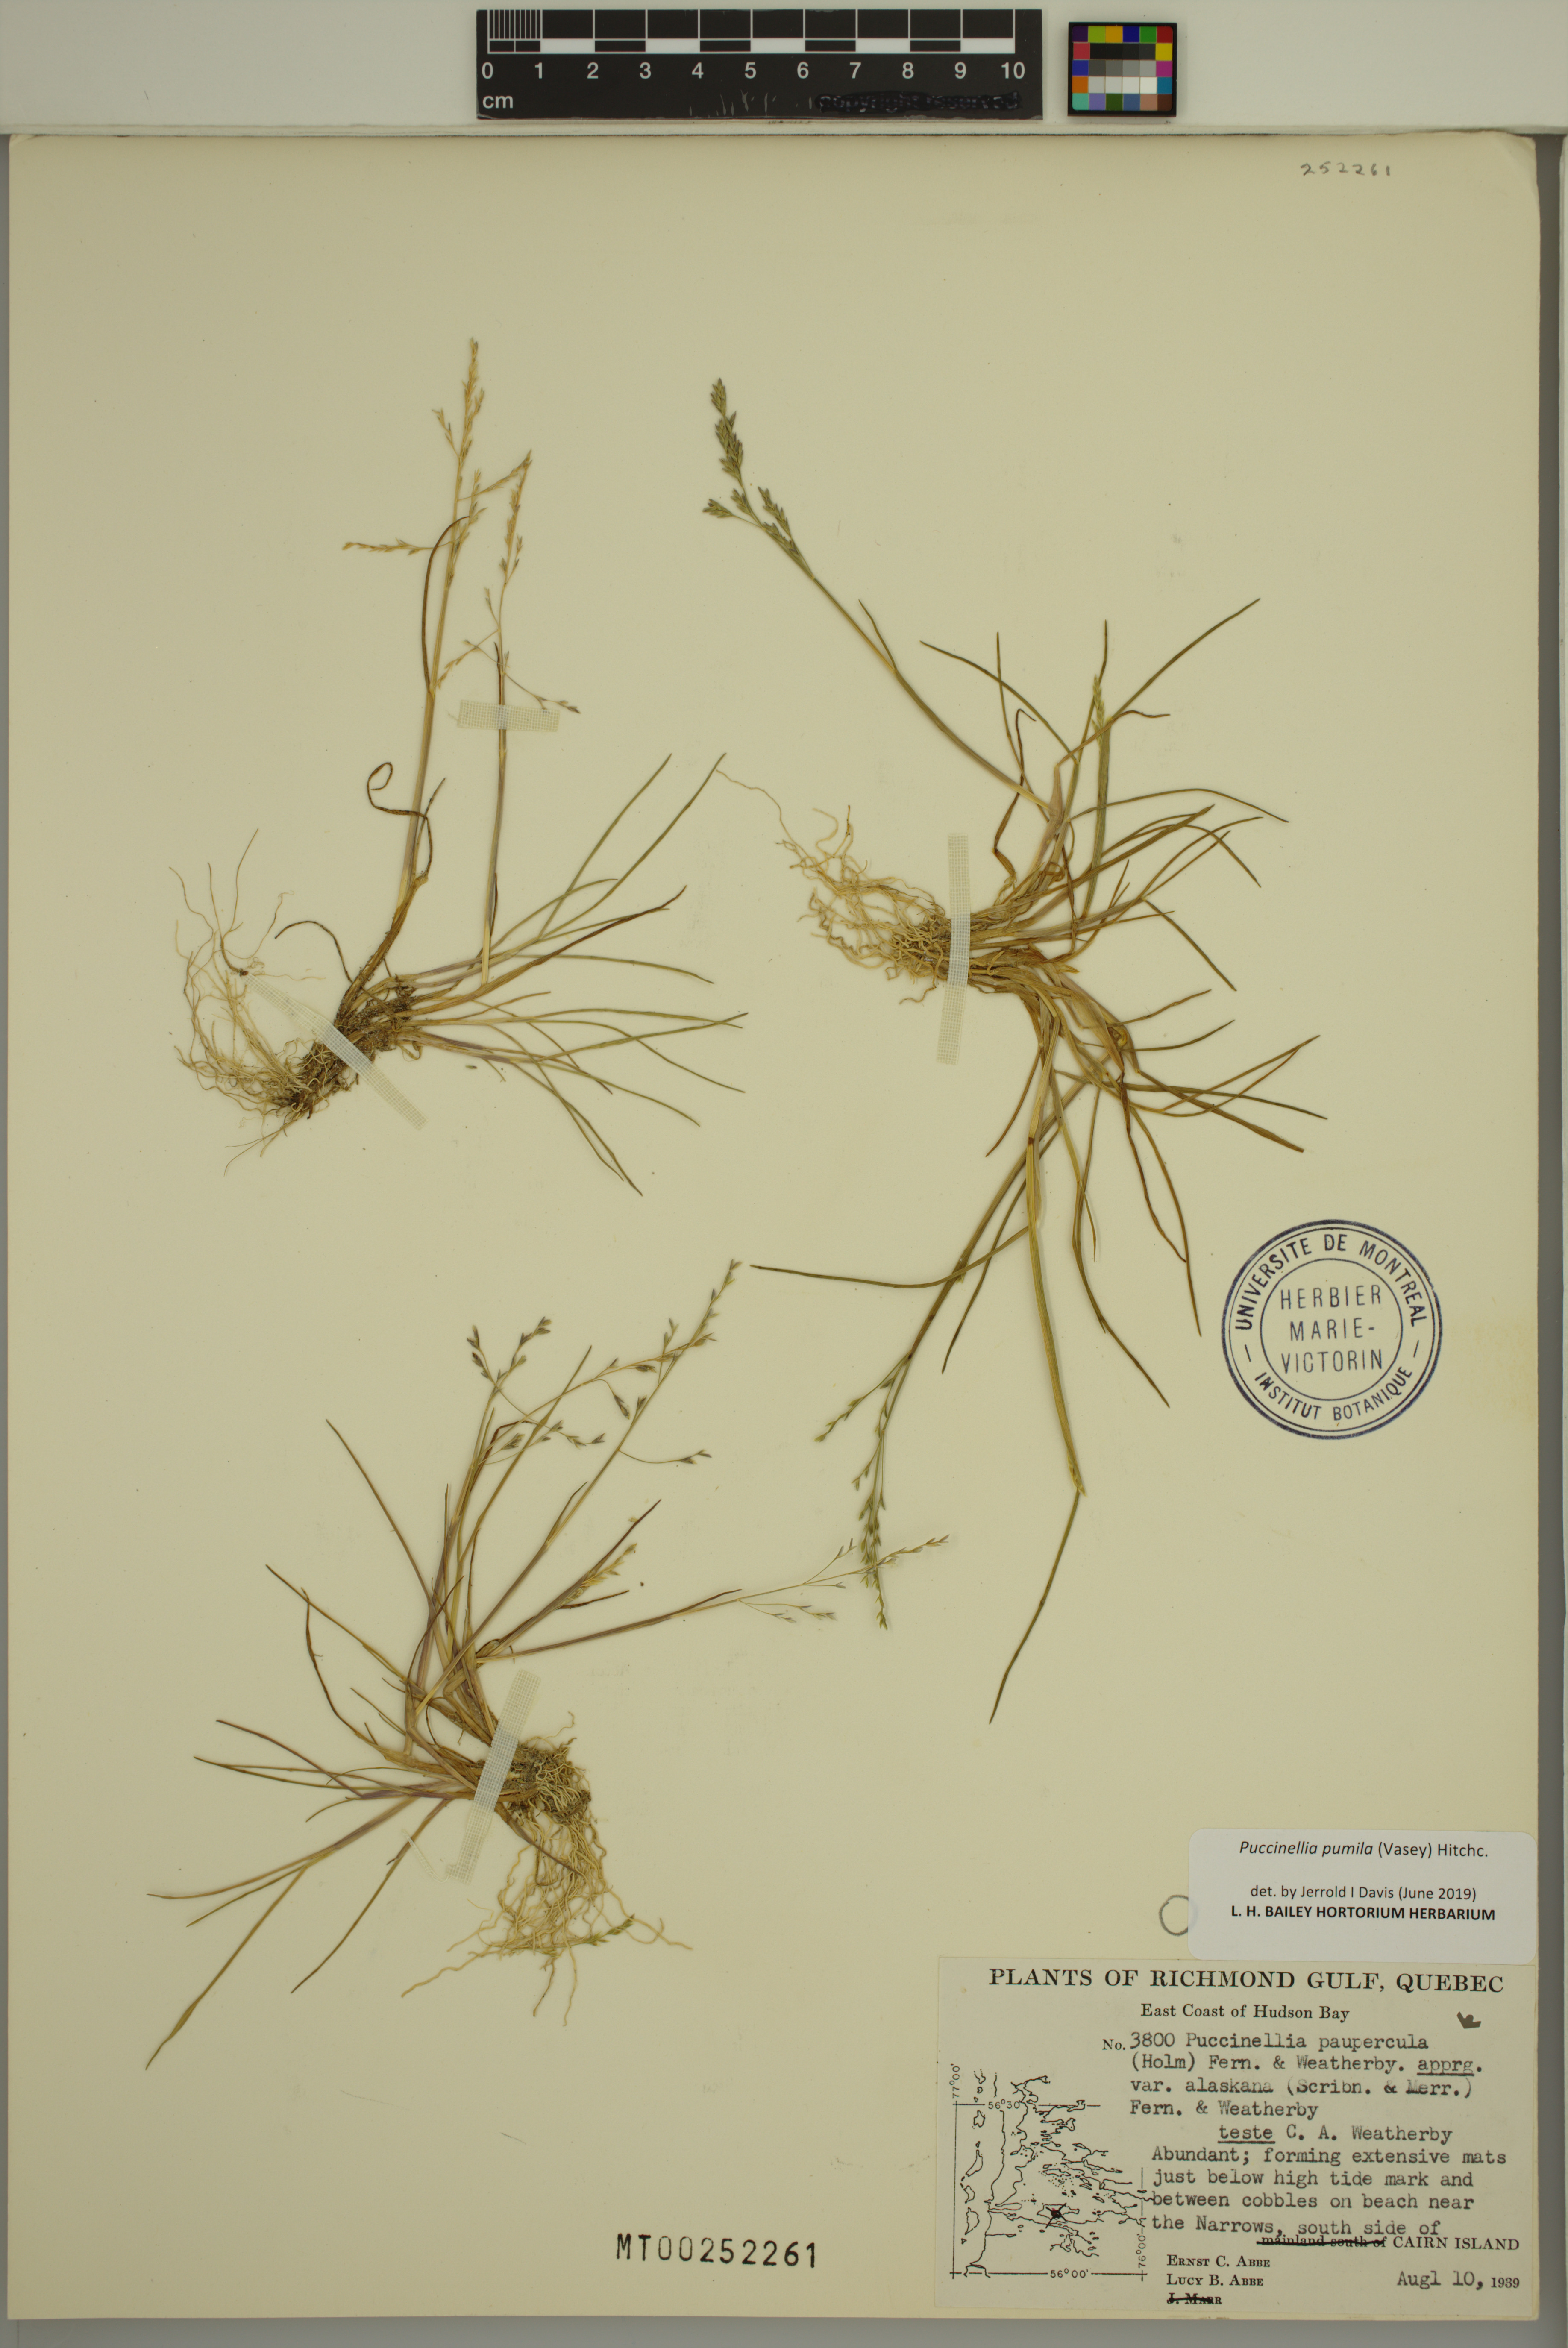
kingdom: Plantae
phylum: Tracheophyta
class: Liliopsida
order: Poales
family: Poaceae
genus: Puccinellia
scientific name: Puccinellia pumila
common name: Dwarf alkaligrass
